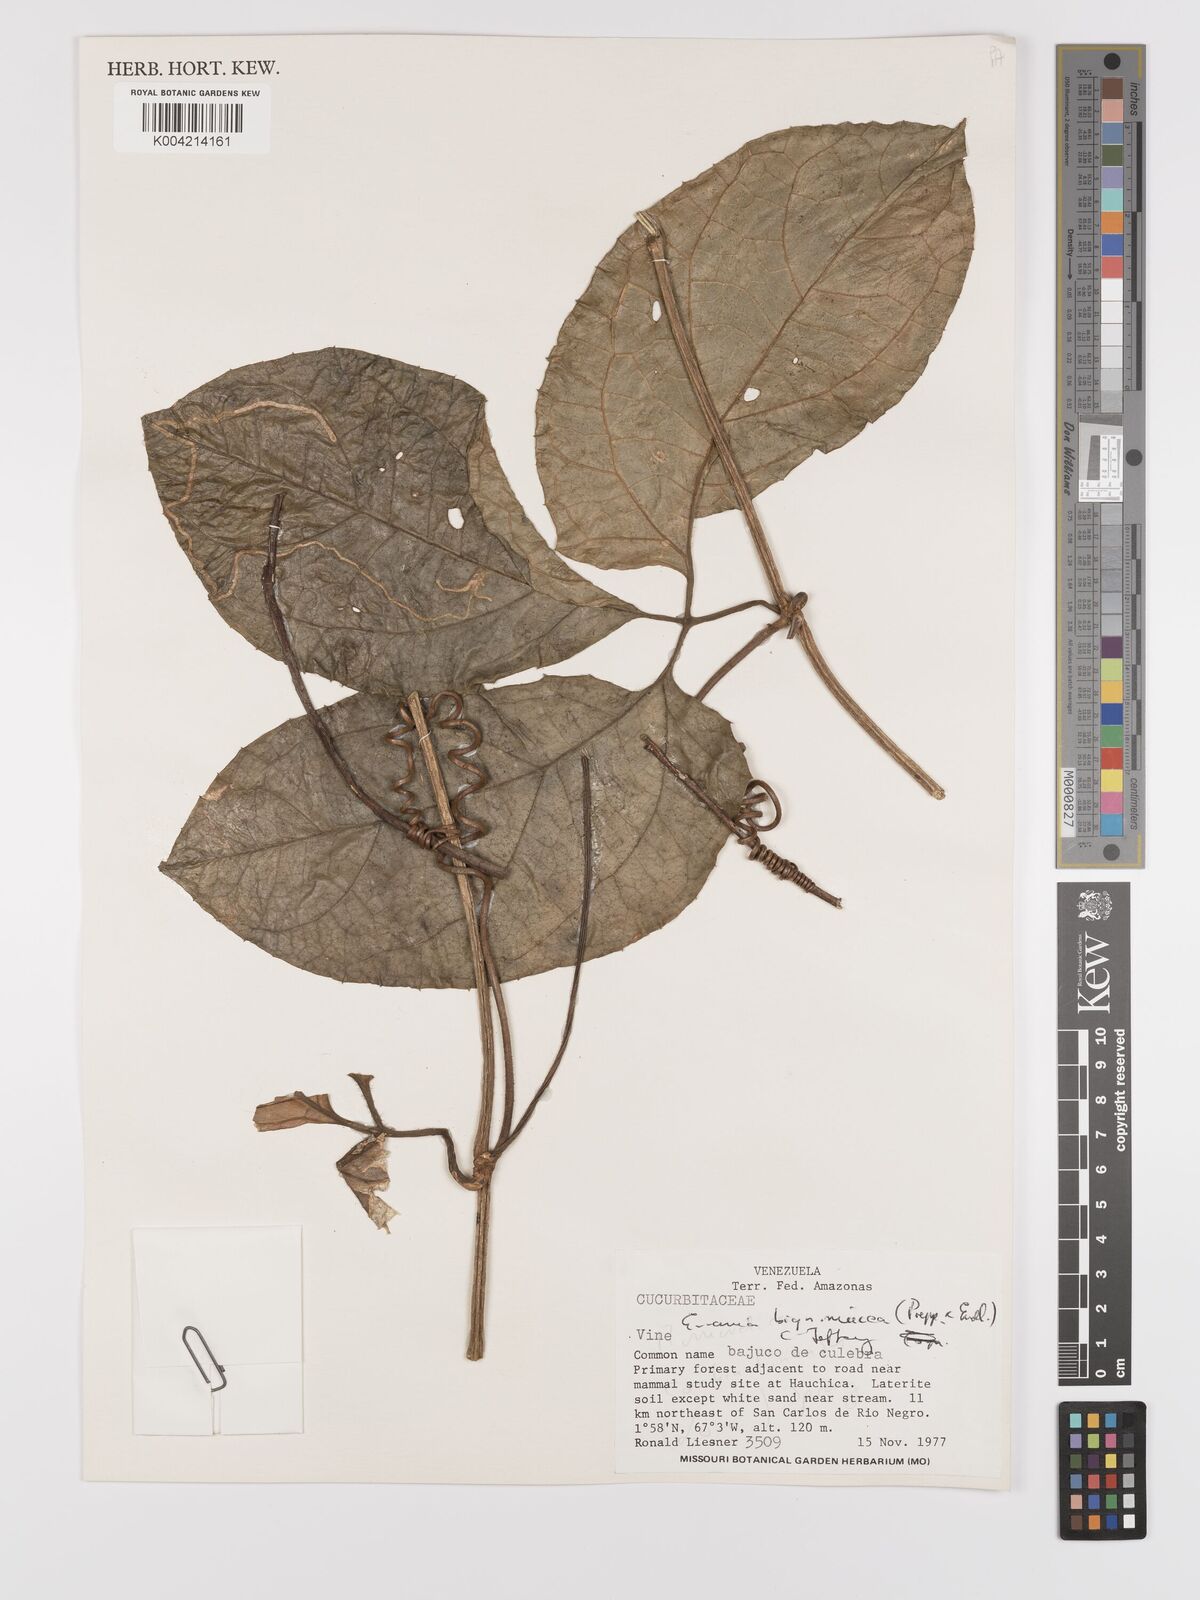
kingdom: Plantae
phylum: Tracheophyta
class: Magnoliopsida
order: Cucurbitales
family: Cucurbitaceae
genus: Gurania
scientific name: Gurania bignoniacea
